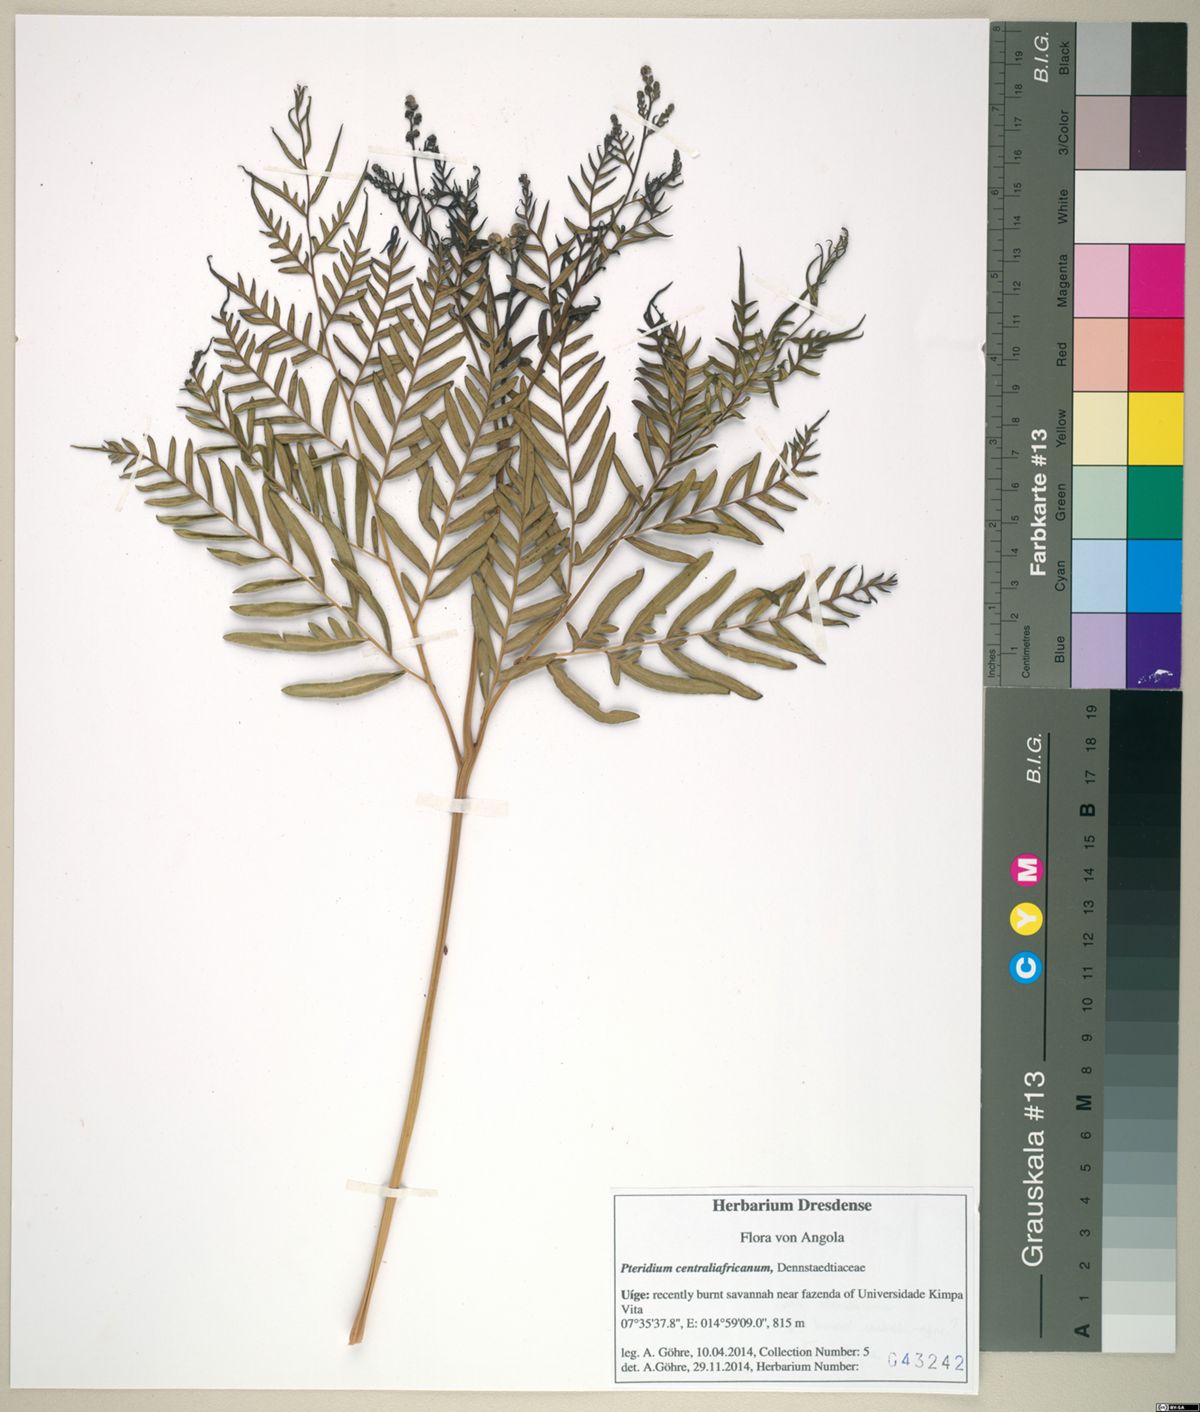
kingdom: Plantae
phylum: Tracheophyta
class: Polypodiopsida
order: Polypodiales
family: Dennstaedtiaceae
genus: Pteridium
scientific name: Pteridium aquilinum
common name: Bracken
